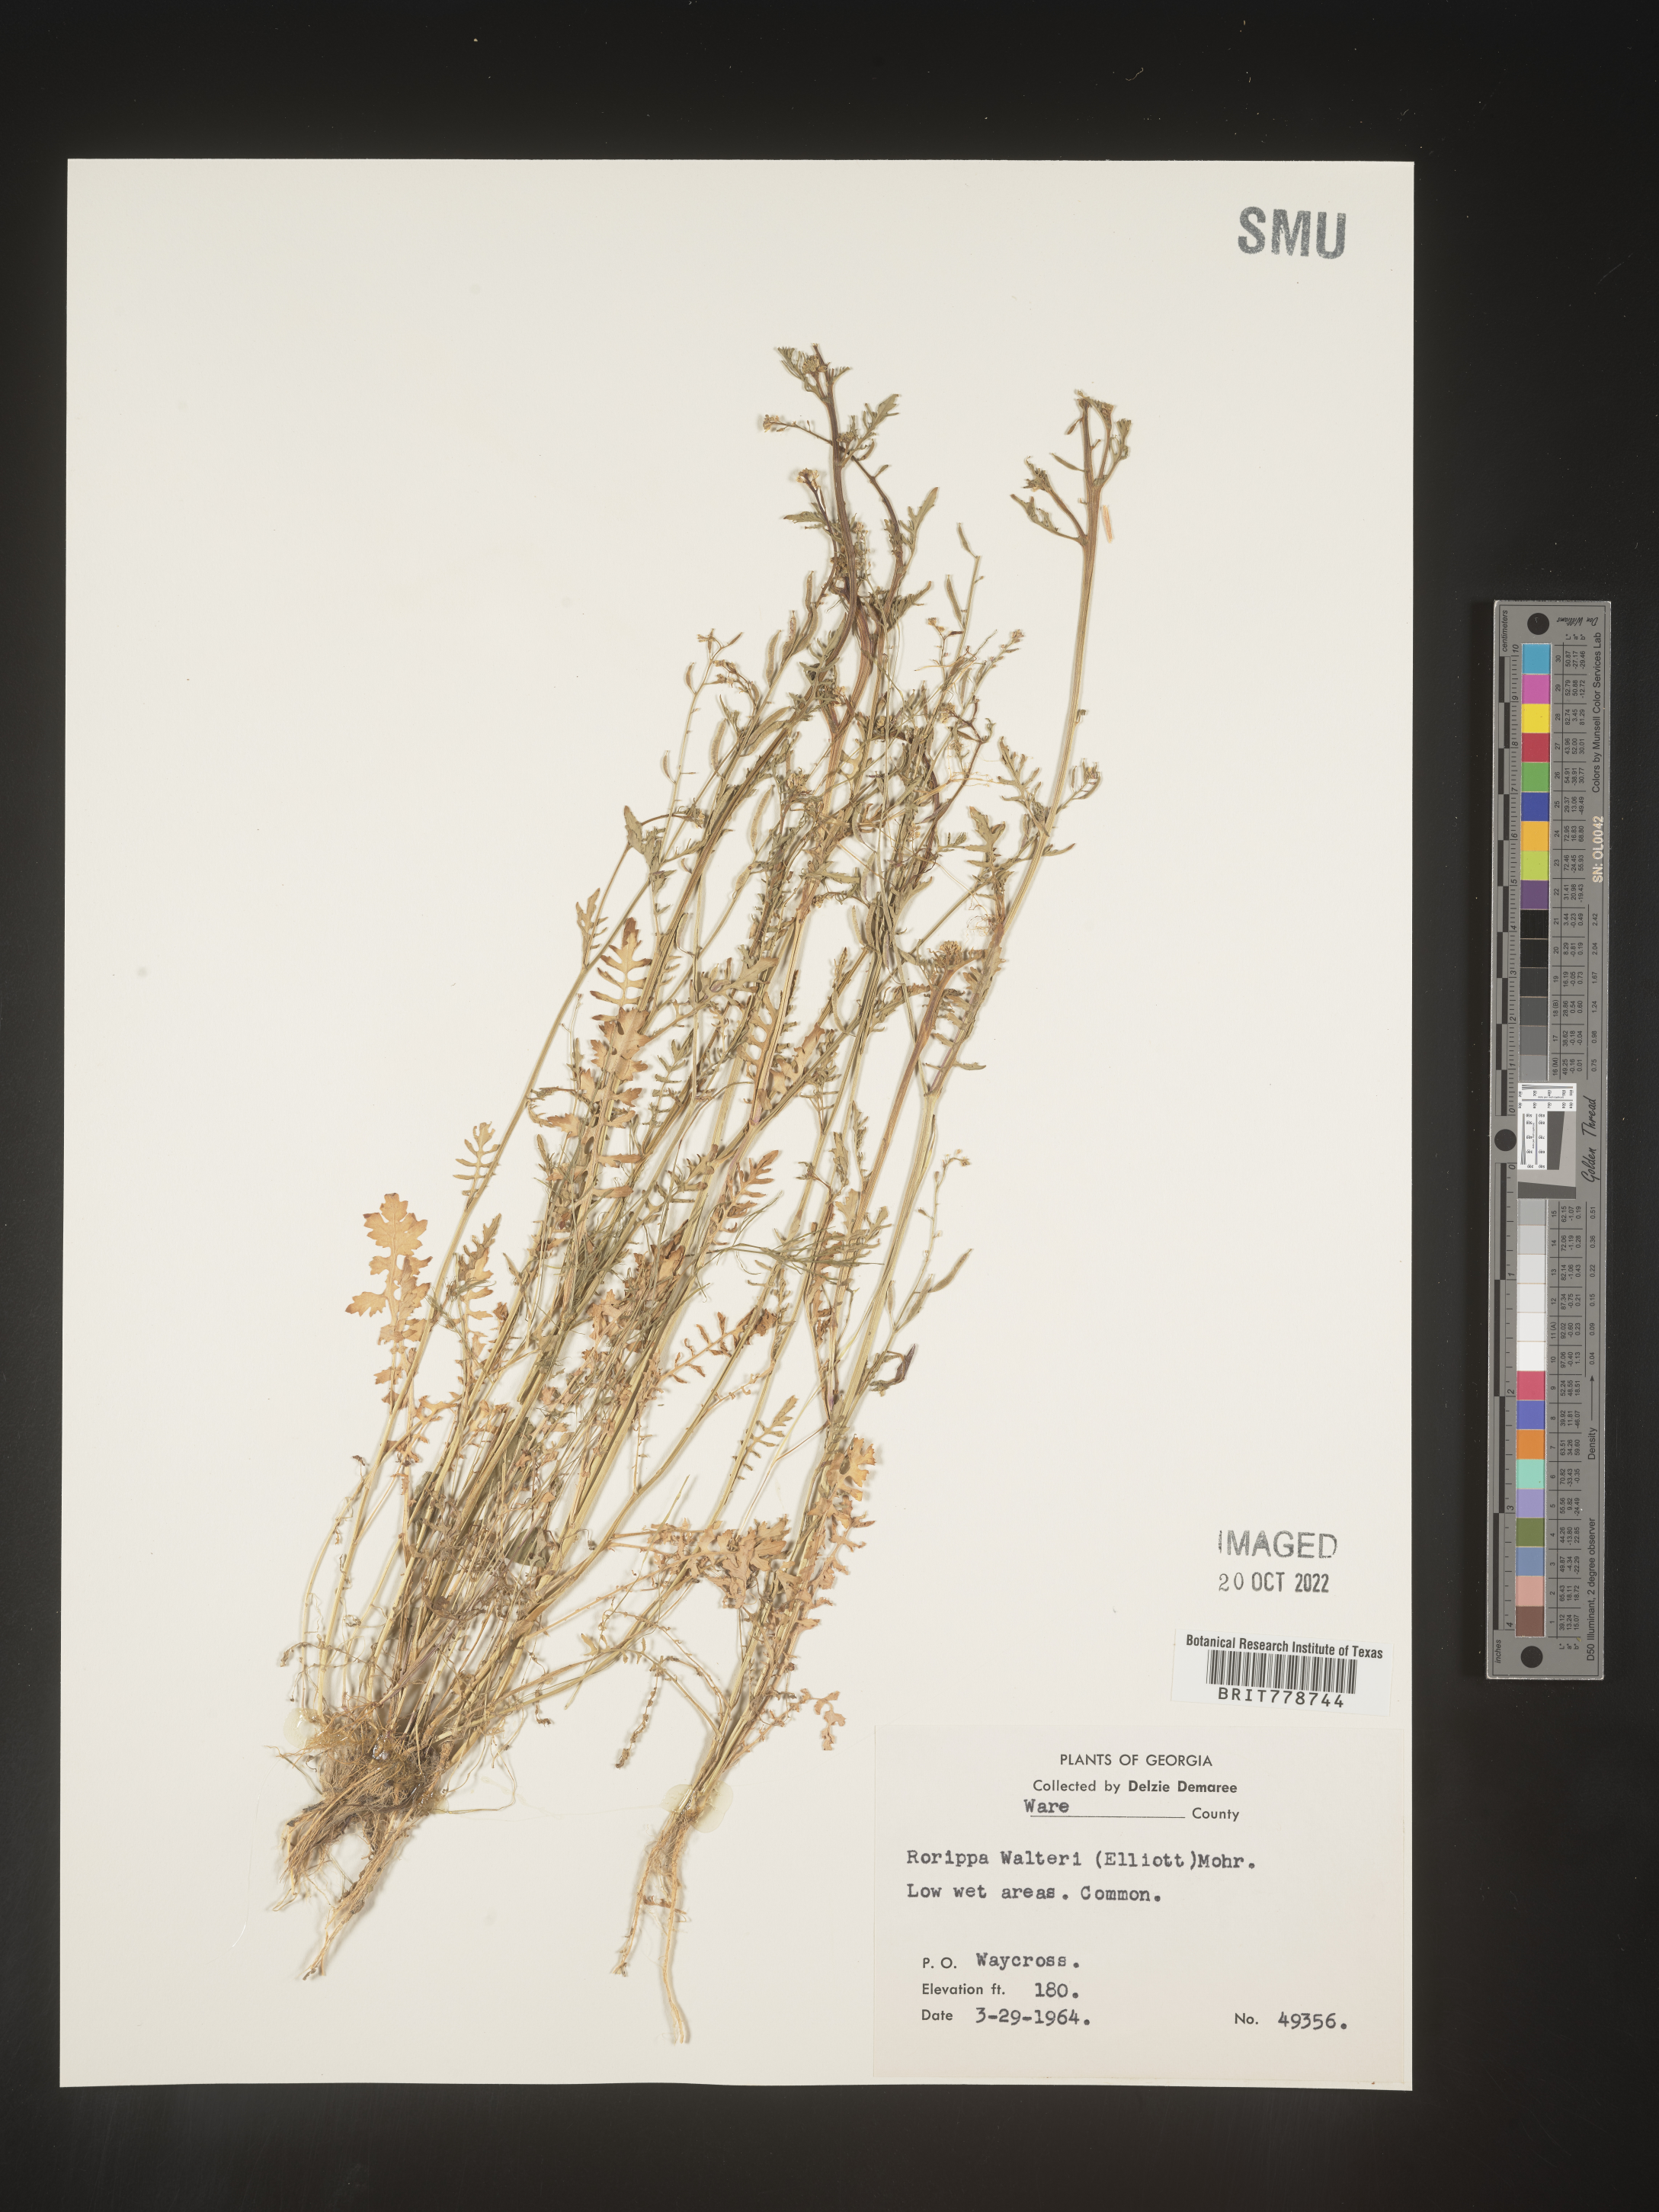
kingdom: Plantae
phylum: Tracheophyta
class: Magnoliopsida
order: Brassicales
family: Brassicaceae
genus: Rorippa
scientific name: Rorippa teres
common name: Southern marsh yellowcress
